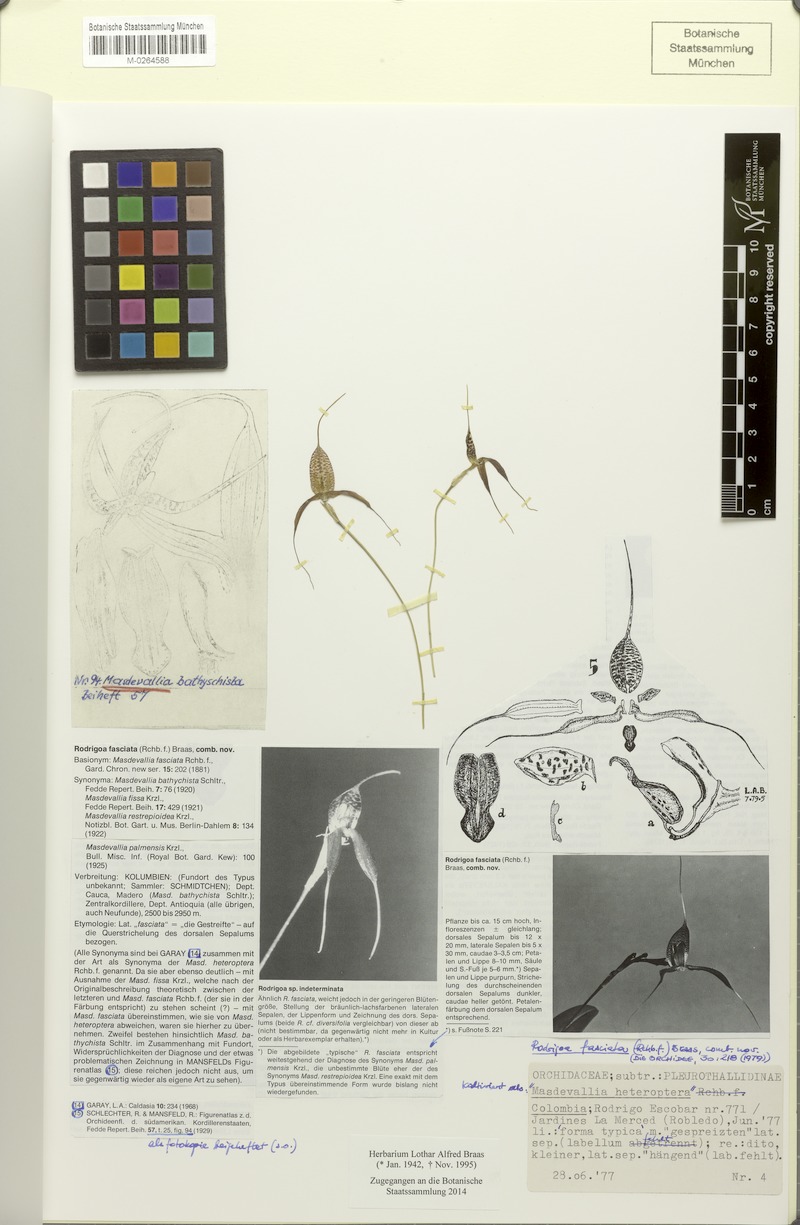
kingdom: Plantae
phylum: Tracheophyta
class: Liliopsida
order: Asparagales
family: Orchidaceae
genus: Masdevallia
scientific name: Masdevallia fasciata
